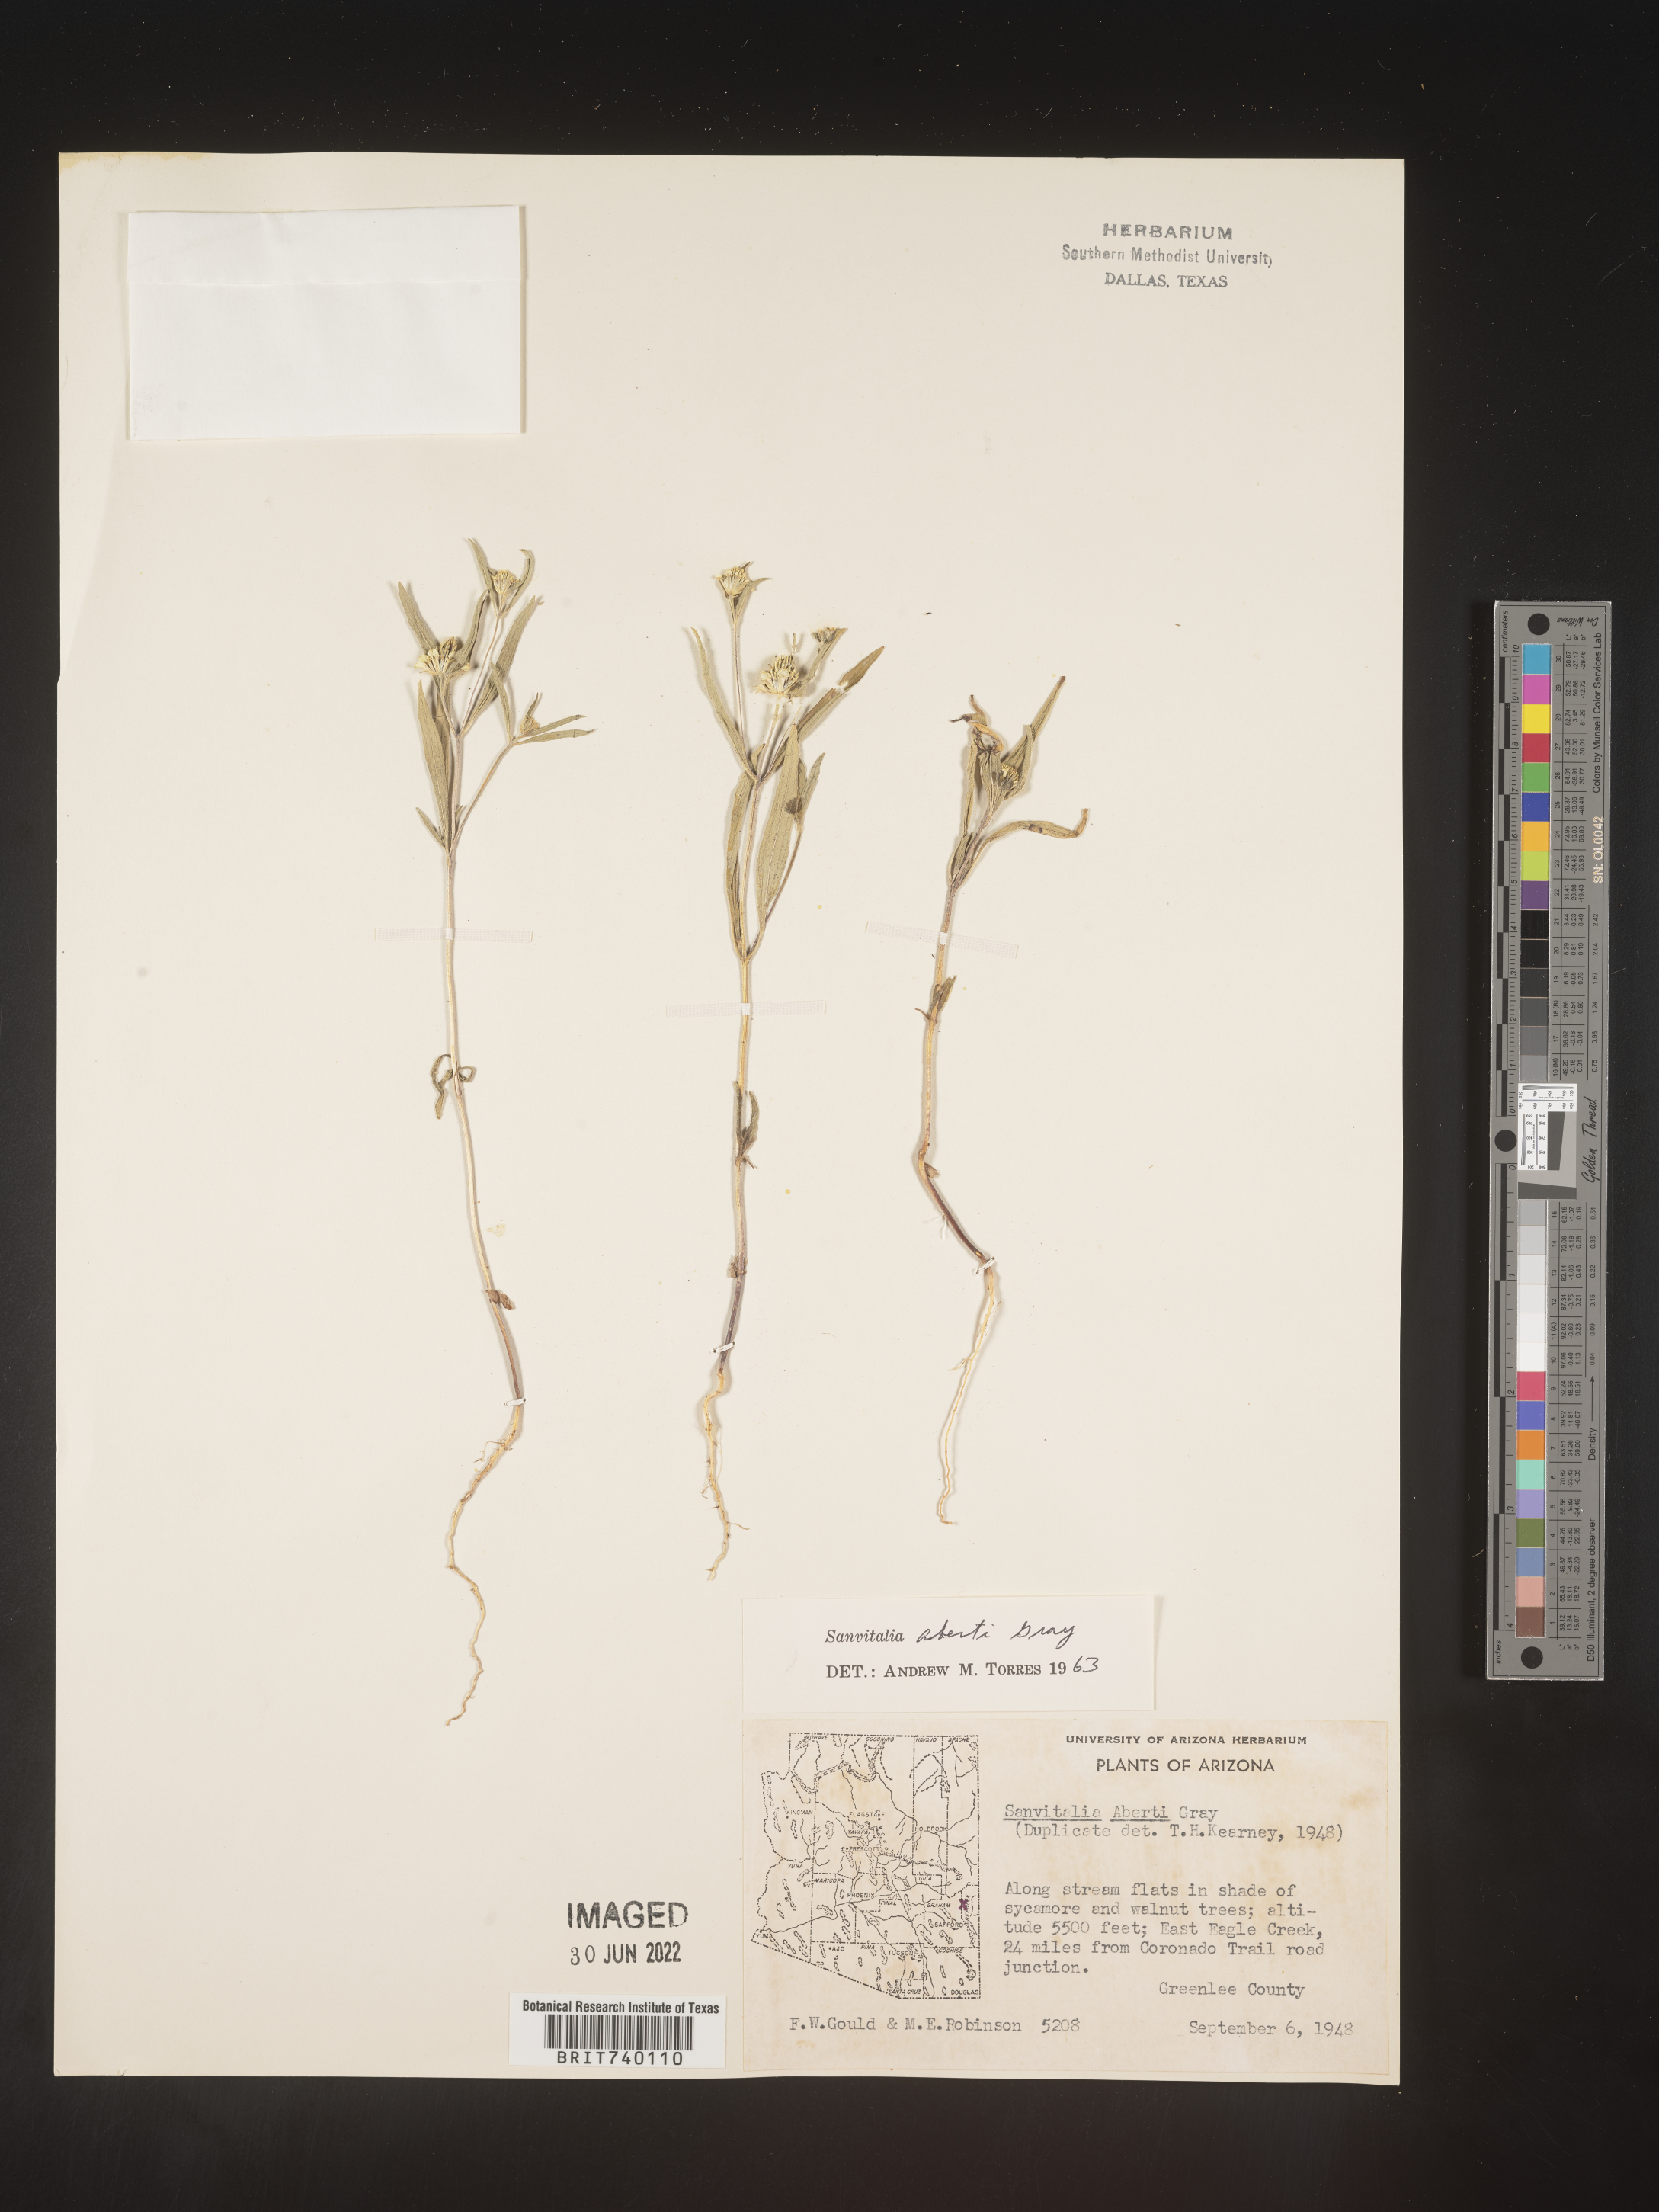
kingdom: Plantae
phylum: Tracheophyta
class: Magnoliopsida
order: Asterales
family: Asteraceae
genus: Sanvitalia
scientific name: Sanvitalia
